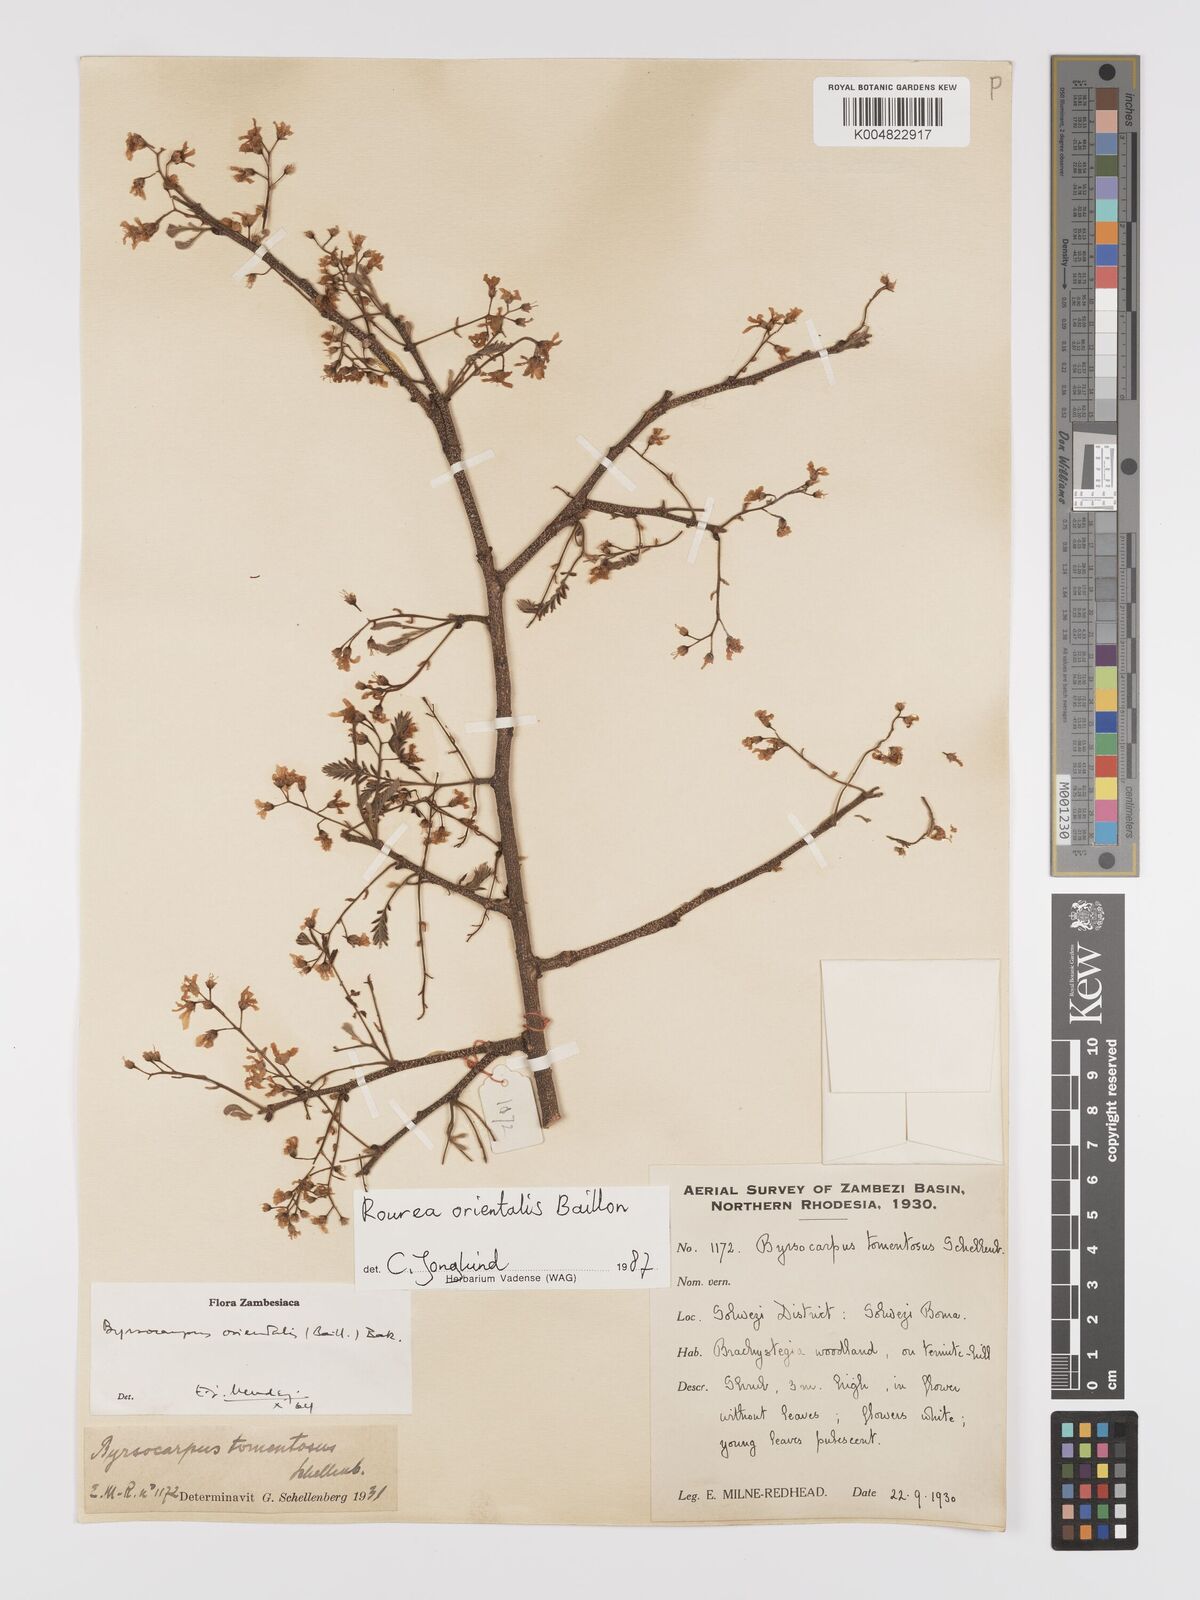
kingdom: Plantae
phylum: Tracheophyta
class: Magnoliopsida
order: Oxalidales
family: Connaraceae
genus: Rourea
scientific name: Rourea orientalis
